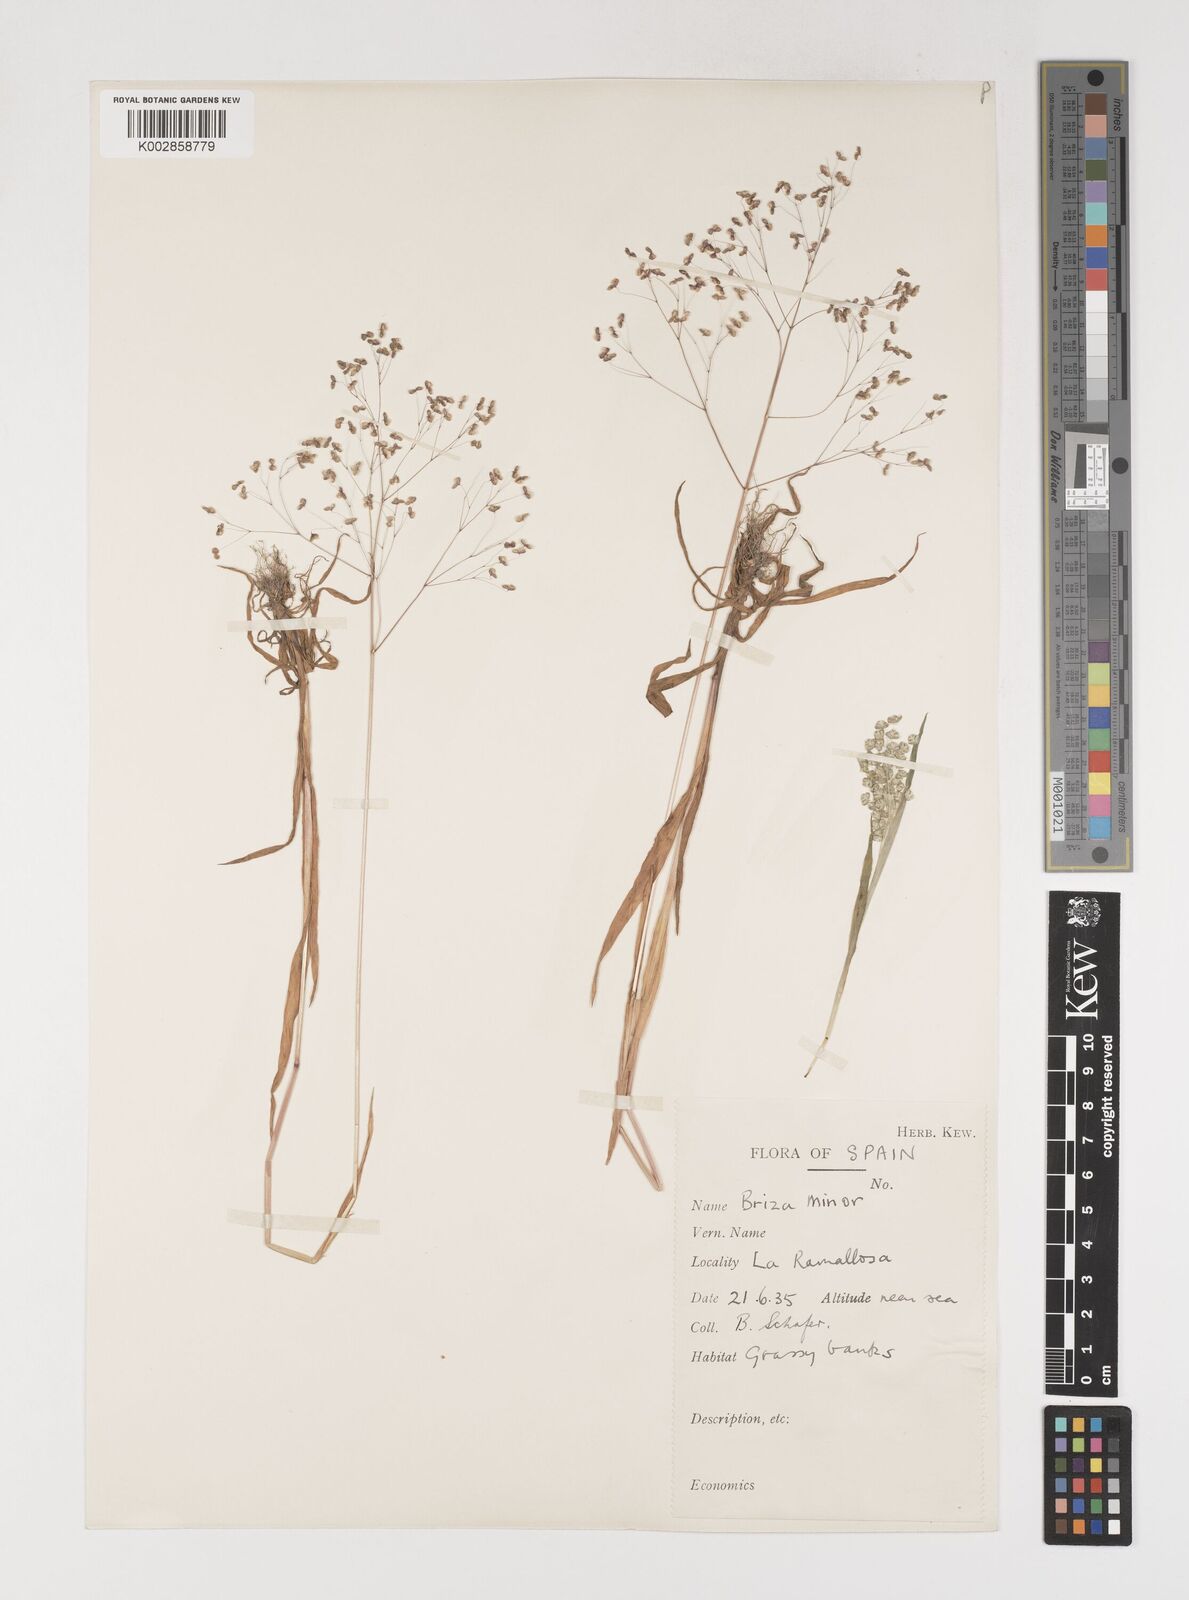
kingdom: Plantae
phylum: Tracheophyta
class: Liliopsida
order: Poales
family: Poaceae
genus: Briza
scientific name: Briza minor
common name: Lesser quaking-grass
